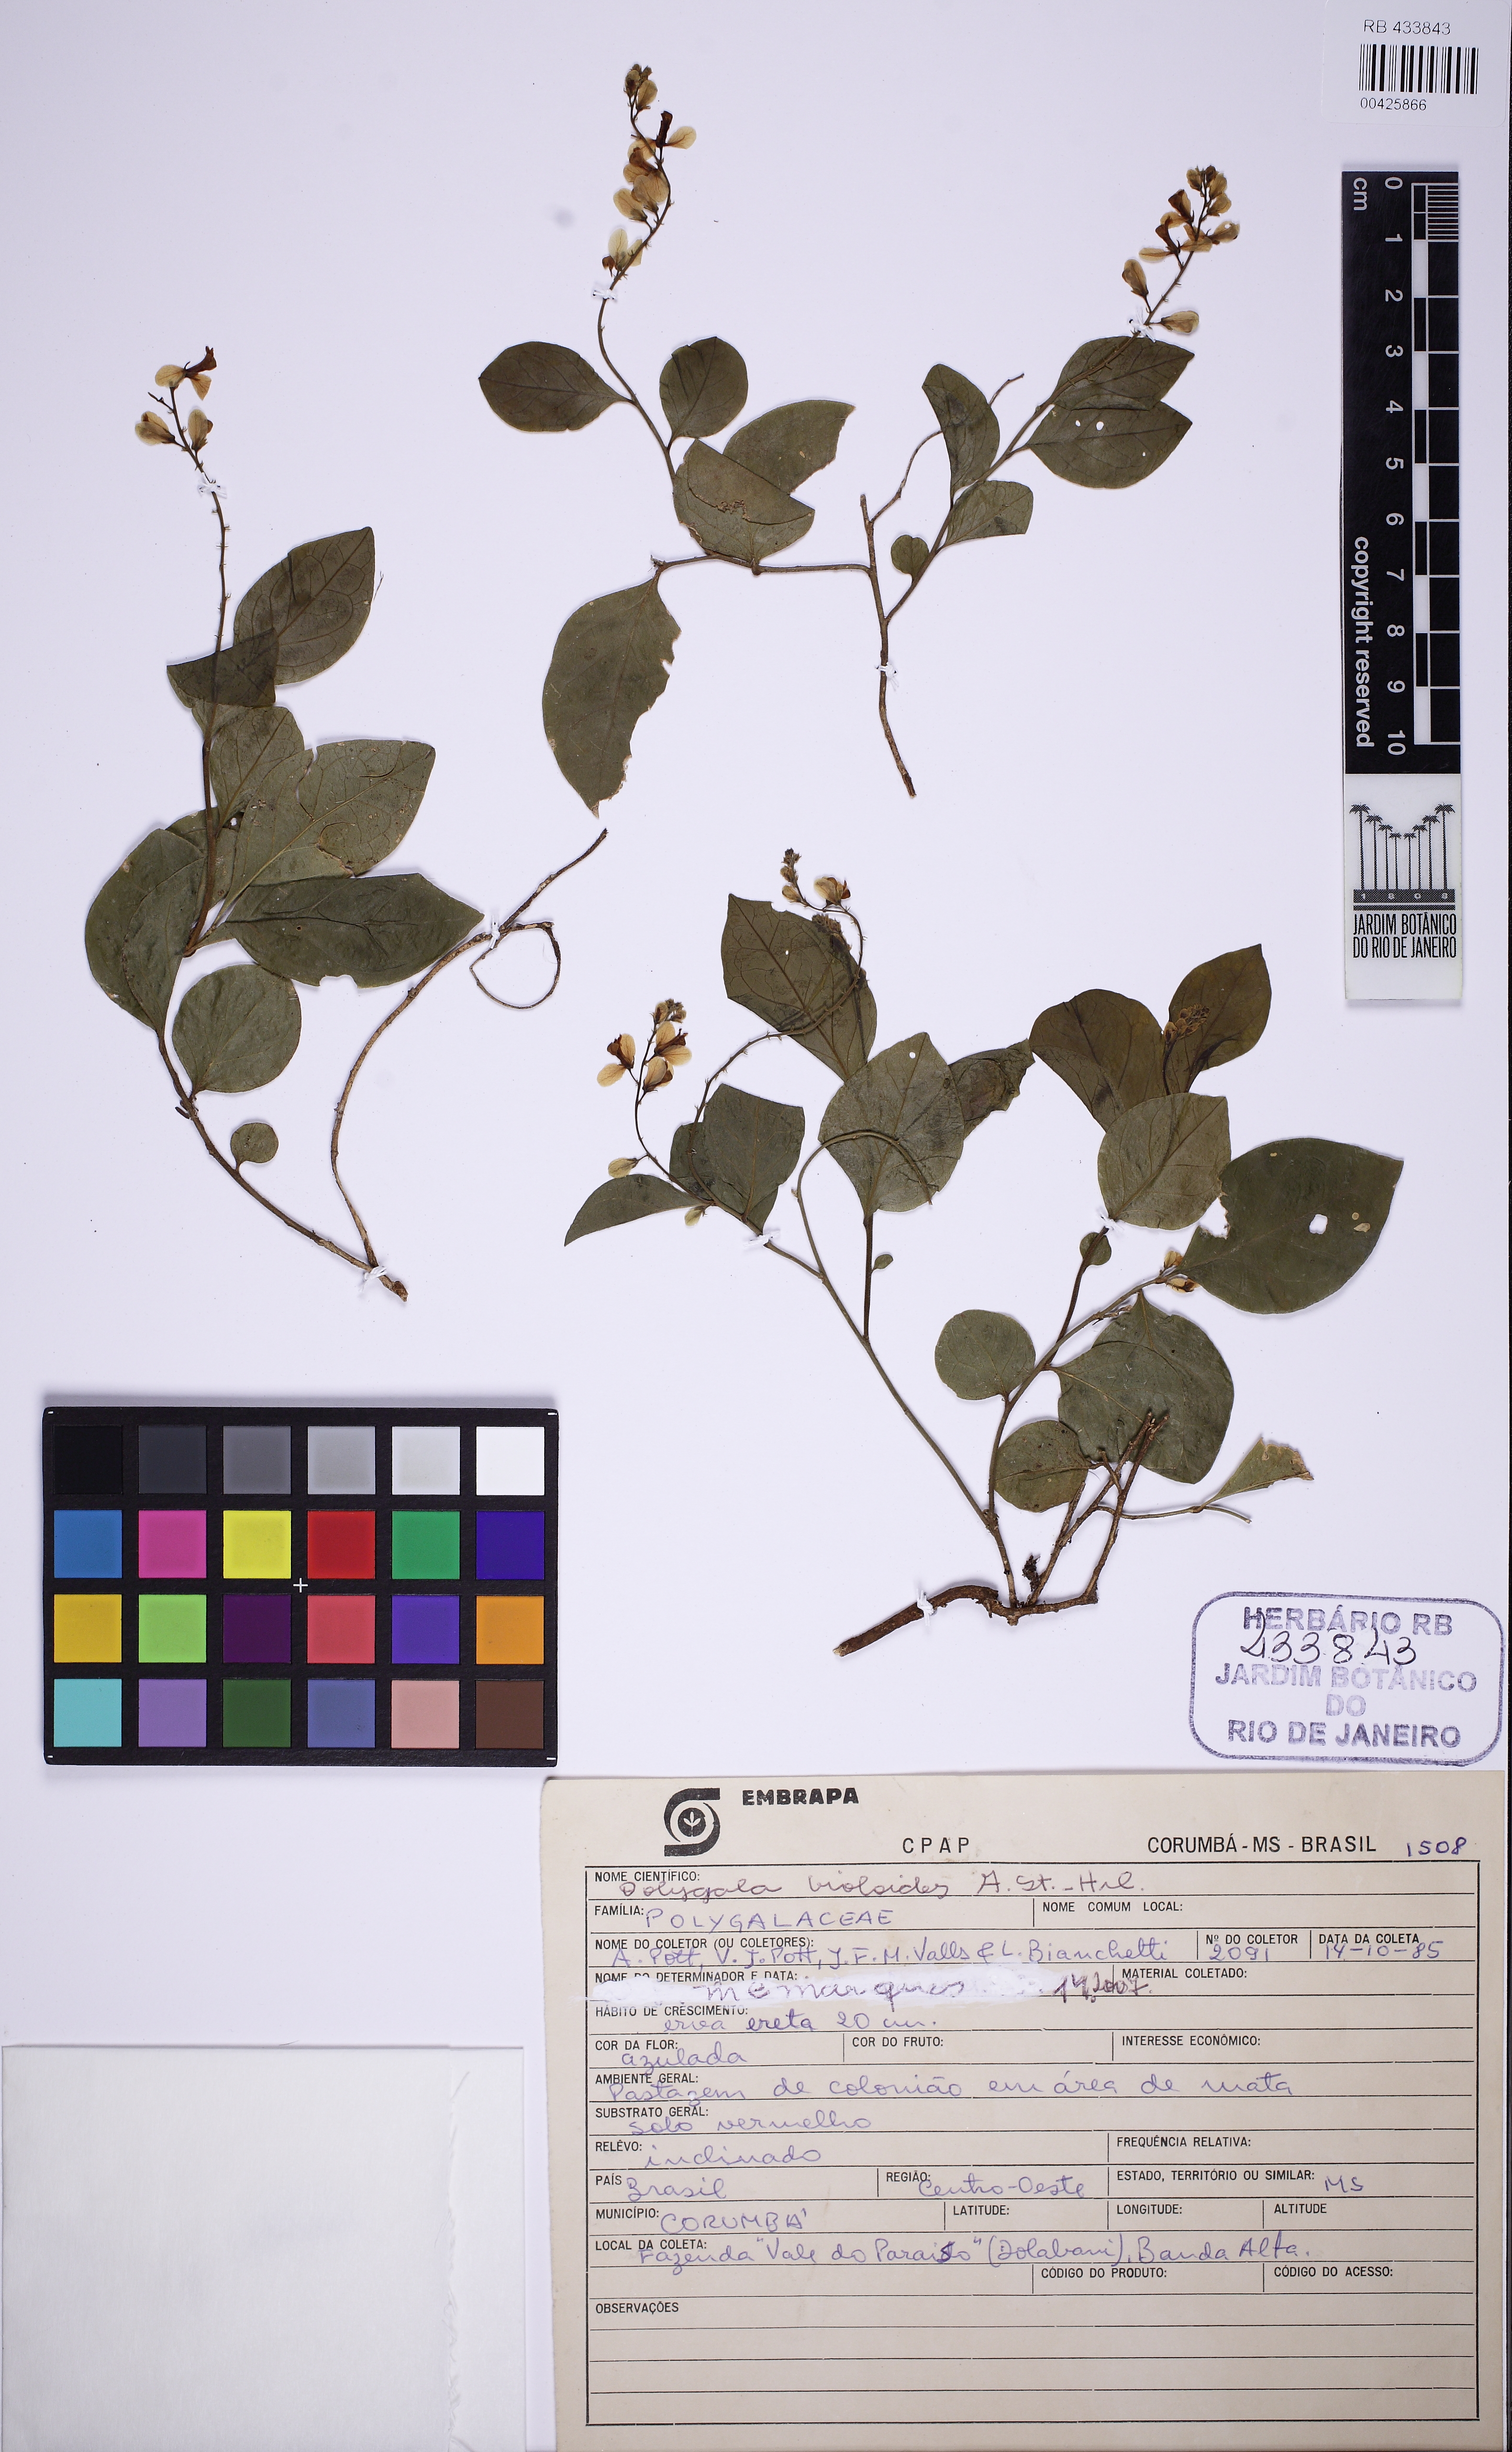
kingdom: Plantae
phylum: Tracheophyta
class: Magnoliopsida
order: Fabales
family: Polygalaceae
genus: Gymnospora
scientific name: Gymnospora violoides
